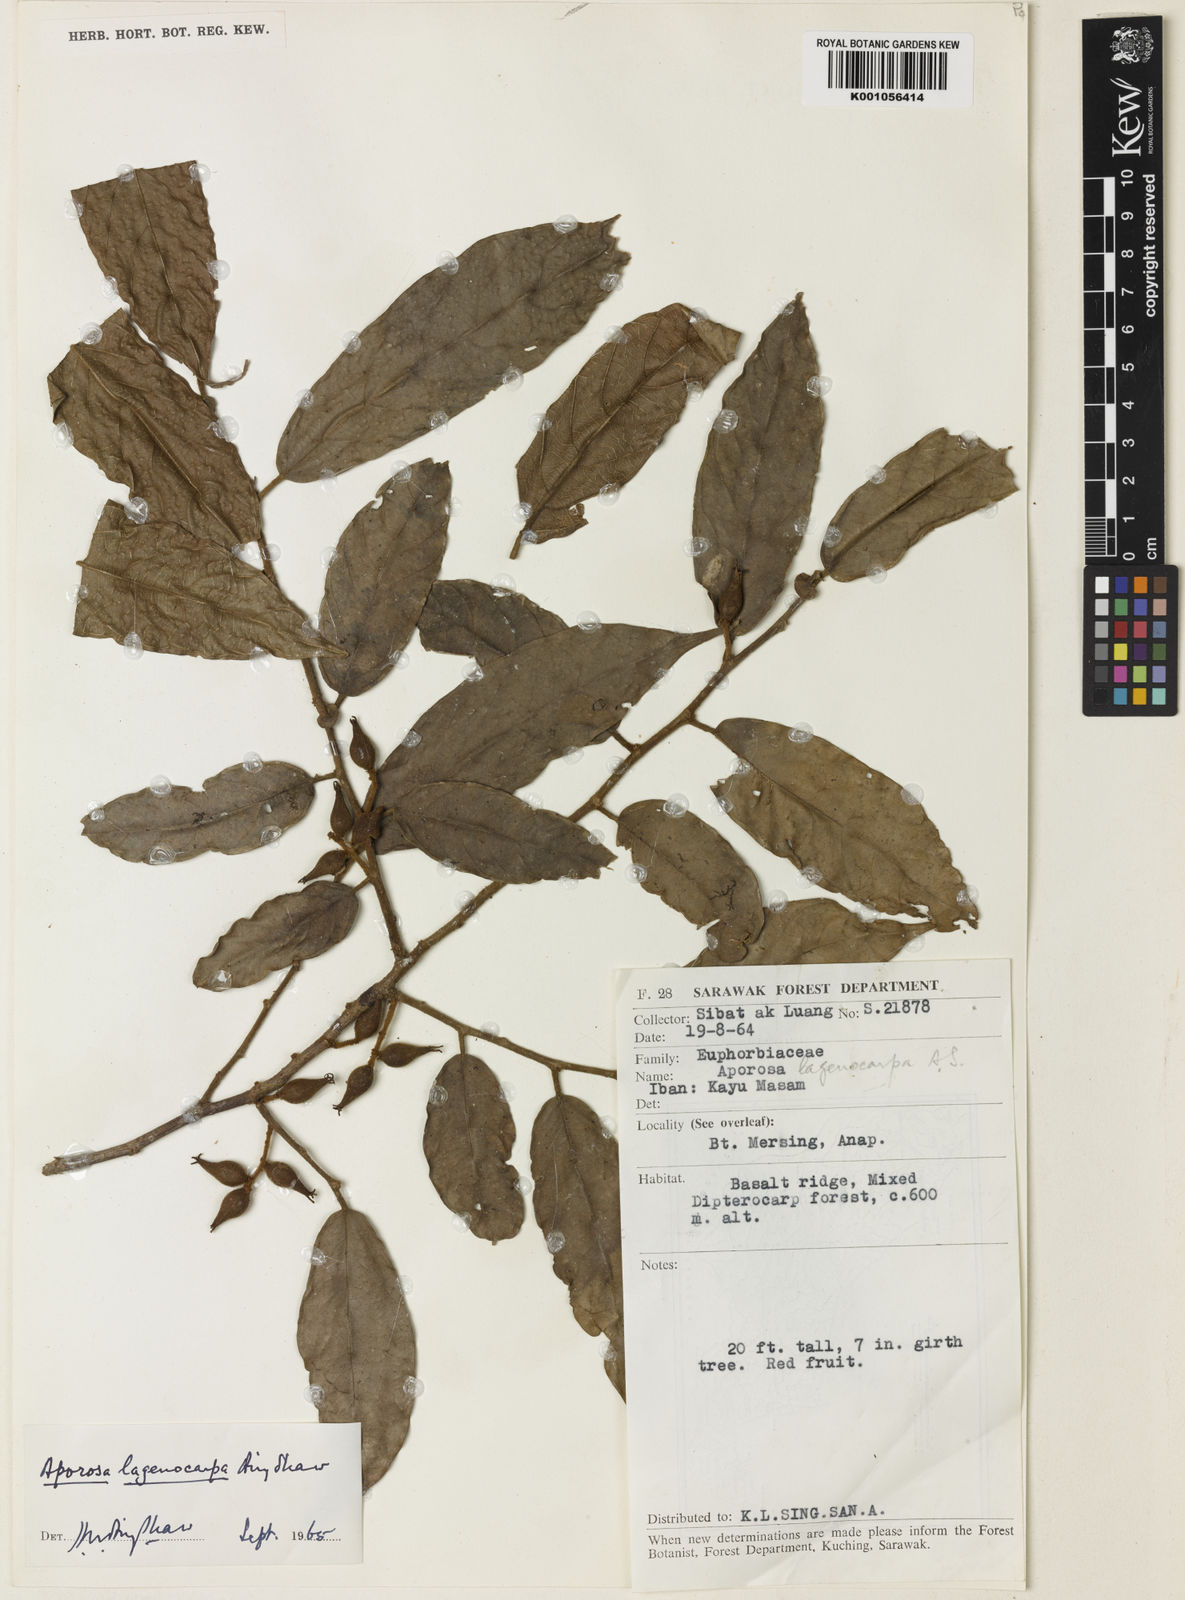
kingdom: Plantae
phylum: Tracheophyta
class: Magnoliopsida
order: Malpighiales
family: Phyllanthaceae
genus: Aporosa
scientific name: Aporosa lagenocarpa
